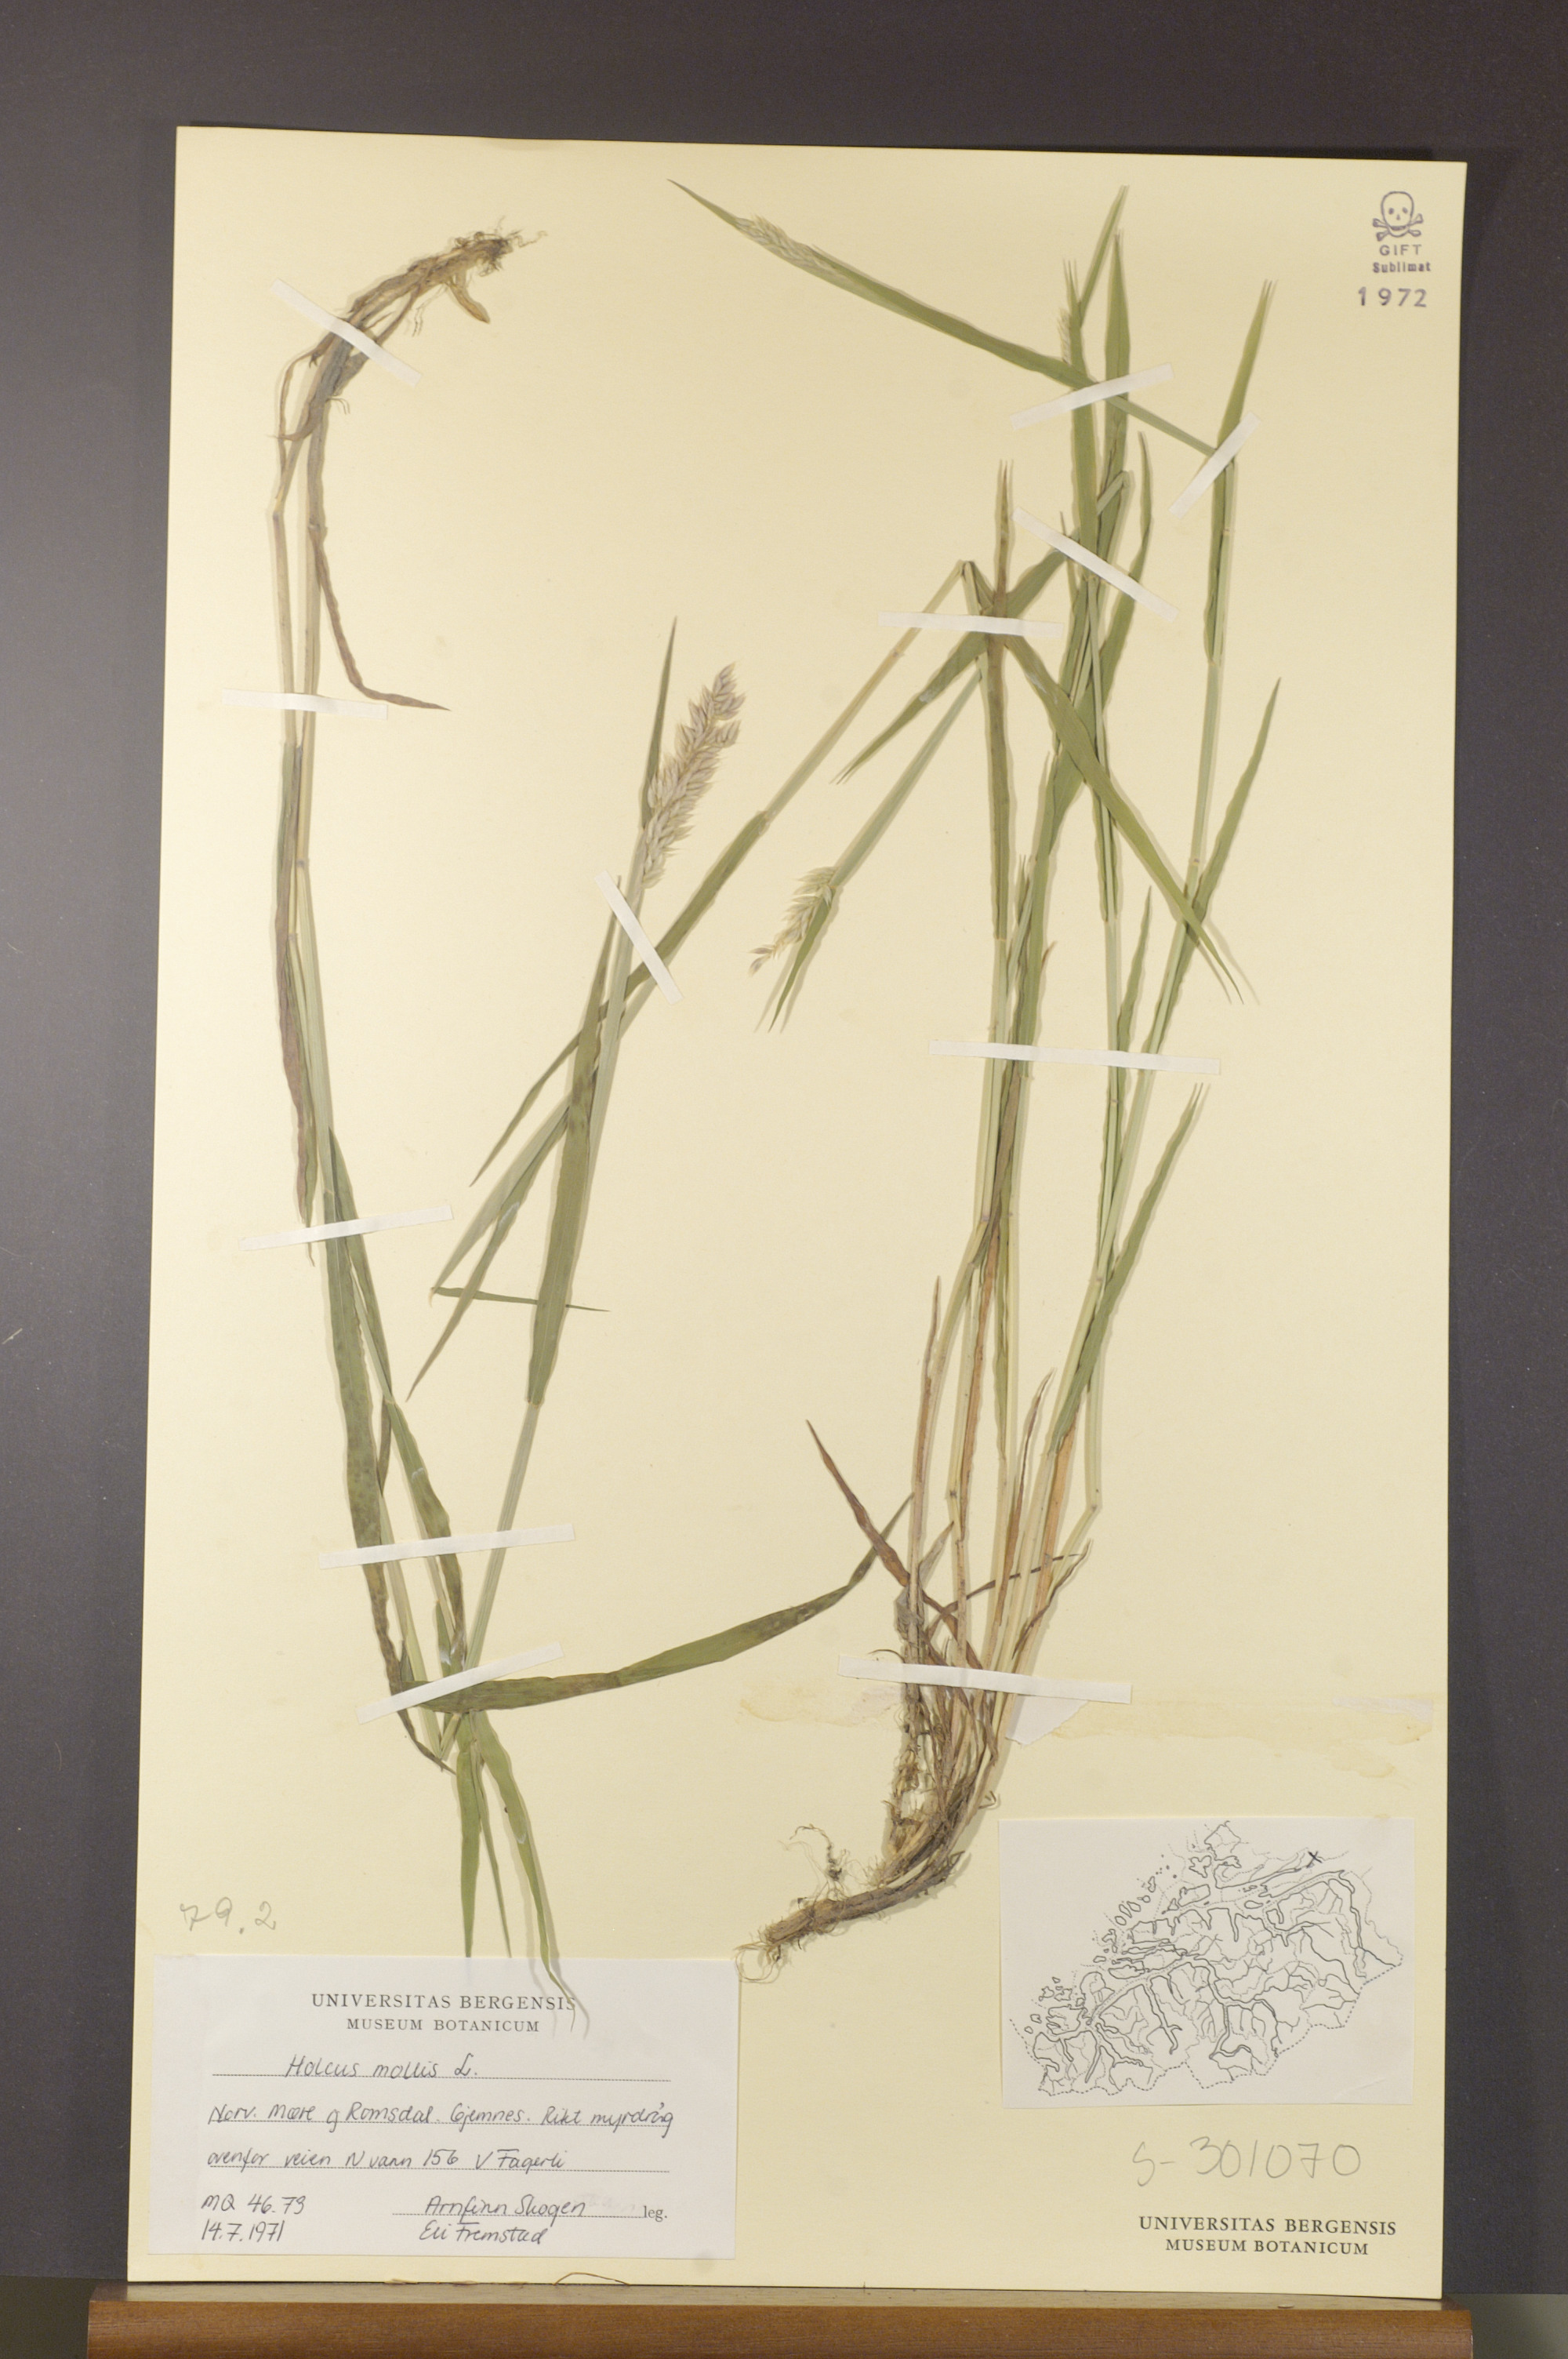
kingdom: Plantae
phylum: Tracheophyta
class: Liliopsida
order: Poales
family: Poaceae
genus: Holcus
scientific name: Holcus mollis
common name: Creeping velvetgrass
